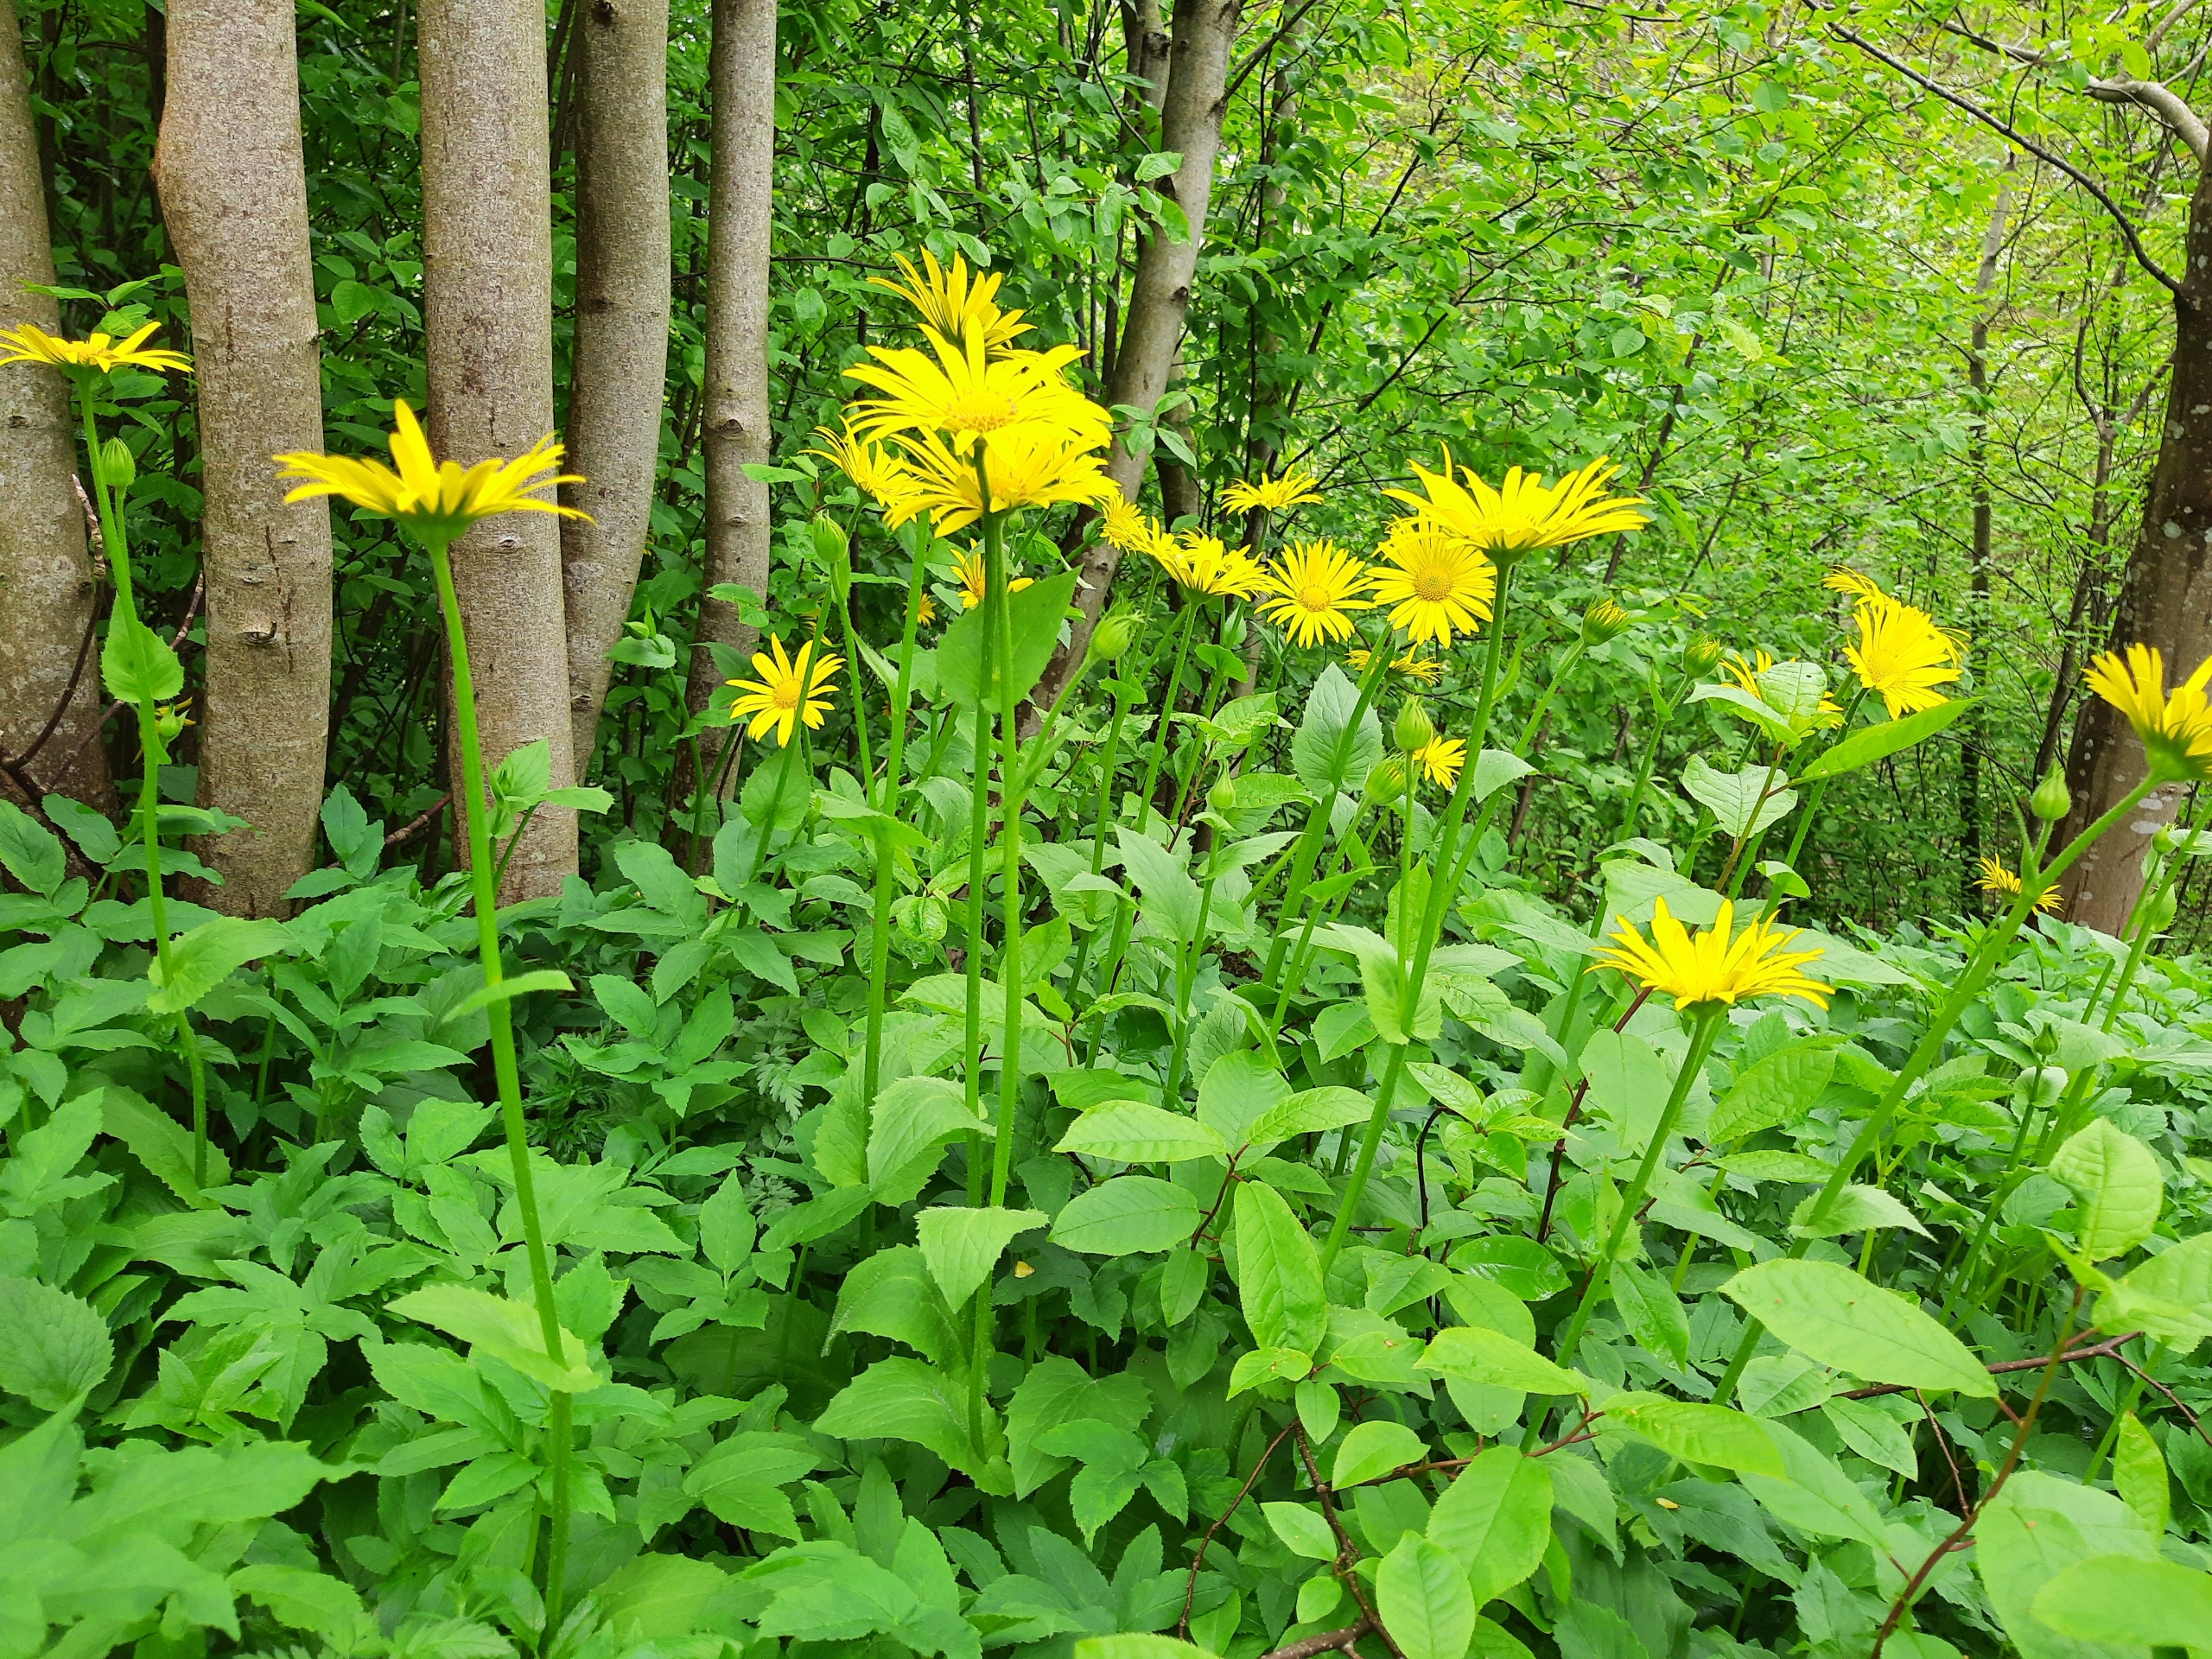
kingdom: Plantae
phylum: Tracheophyta
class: Magnoliopsida
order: Asterales
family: Asteraceae
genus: Doronicum
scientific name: Doronicum columnae
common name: Tue-gemserod
